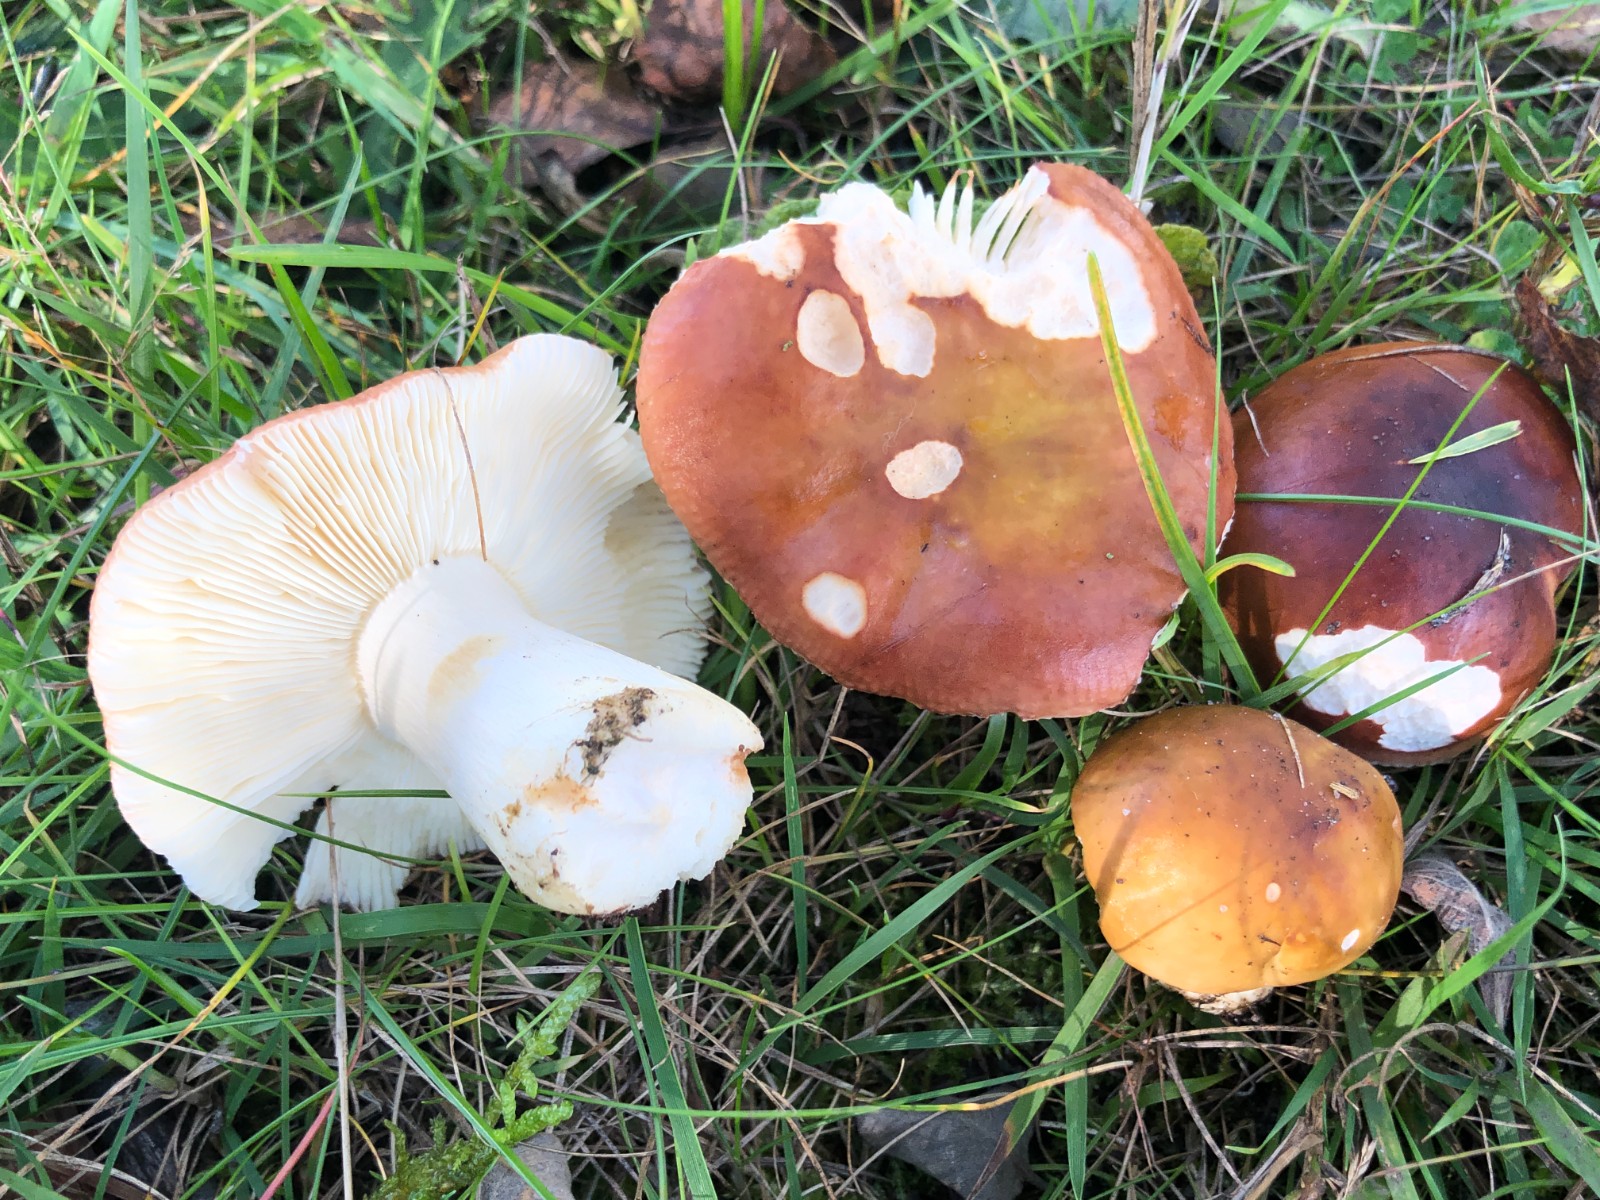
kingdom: Fungi
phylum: Basidiomycota
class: Agaricomycetes
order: Russulales
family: Russulaceae
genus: Russula
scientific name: Russula subrubens
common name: pile-skørhat
